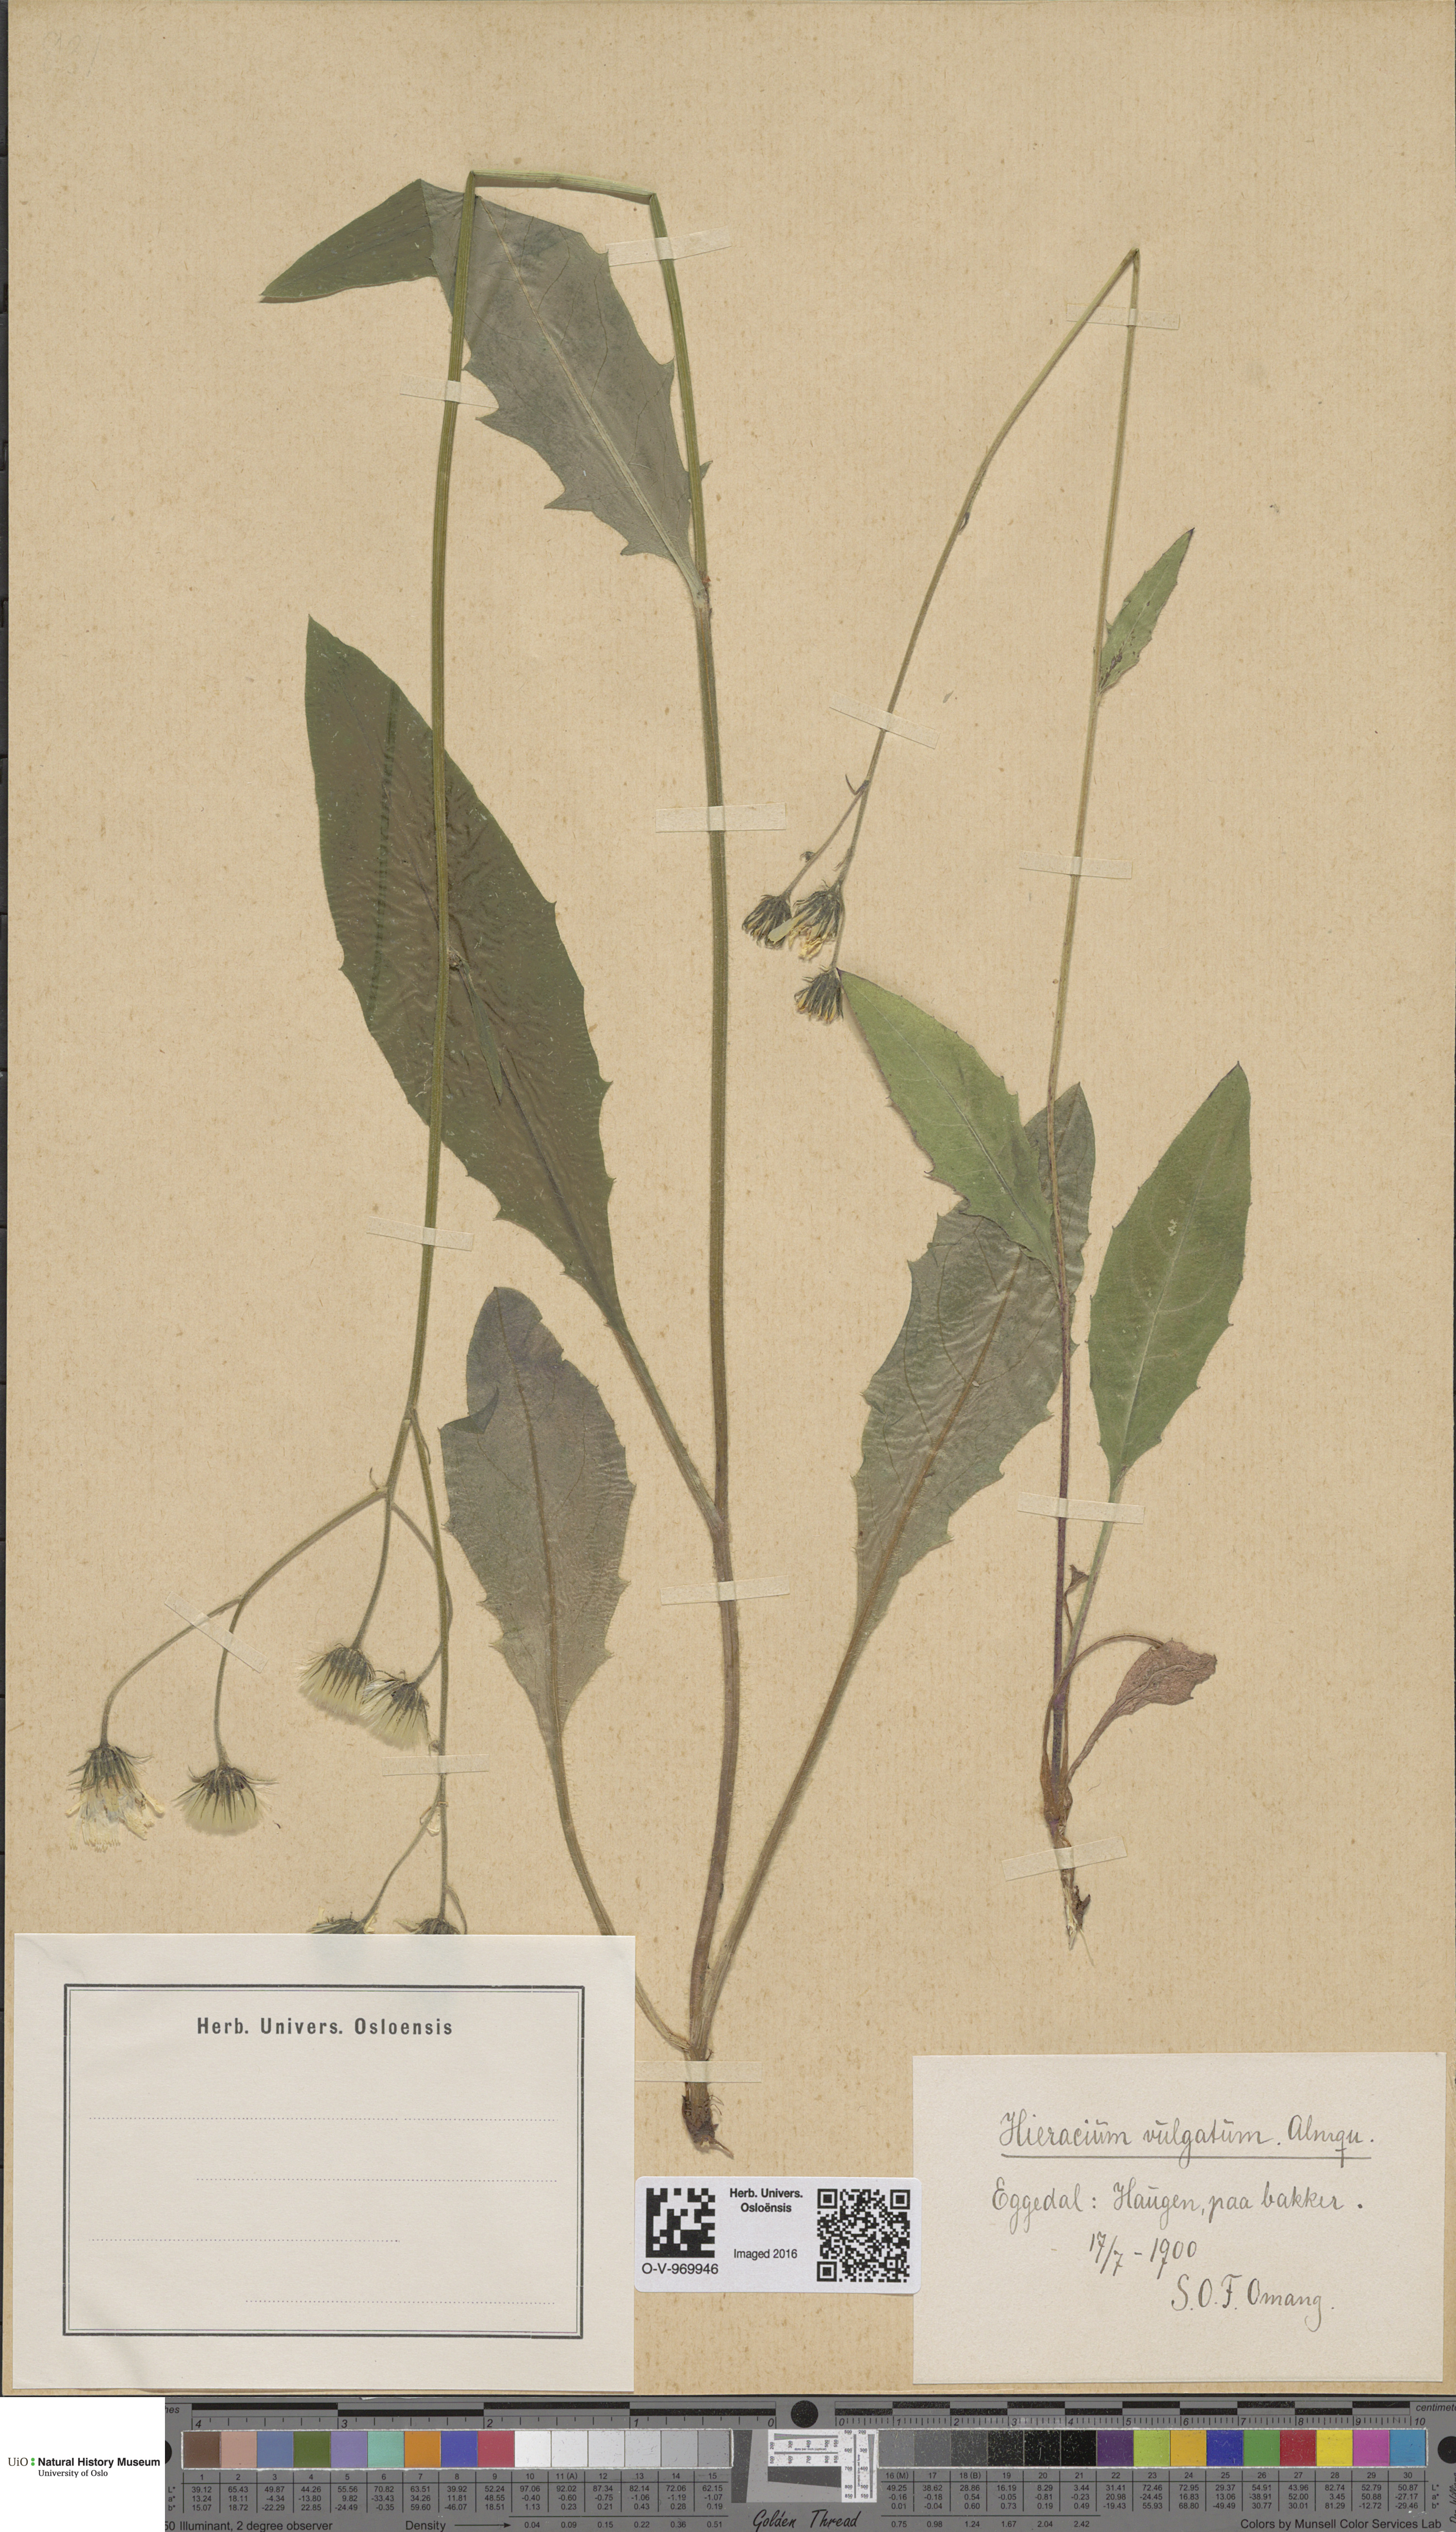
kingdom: Plantae
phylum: Tracheophyta
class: Magnoliopsida
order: Asterales
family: Asteraceae
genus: Hieracium
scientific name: Hieracium vulgatum
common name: Common hawkweed
